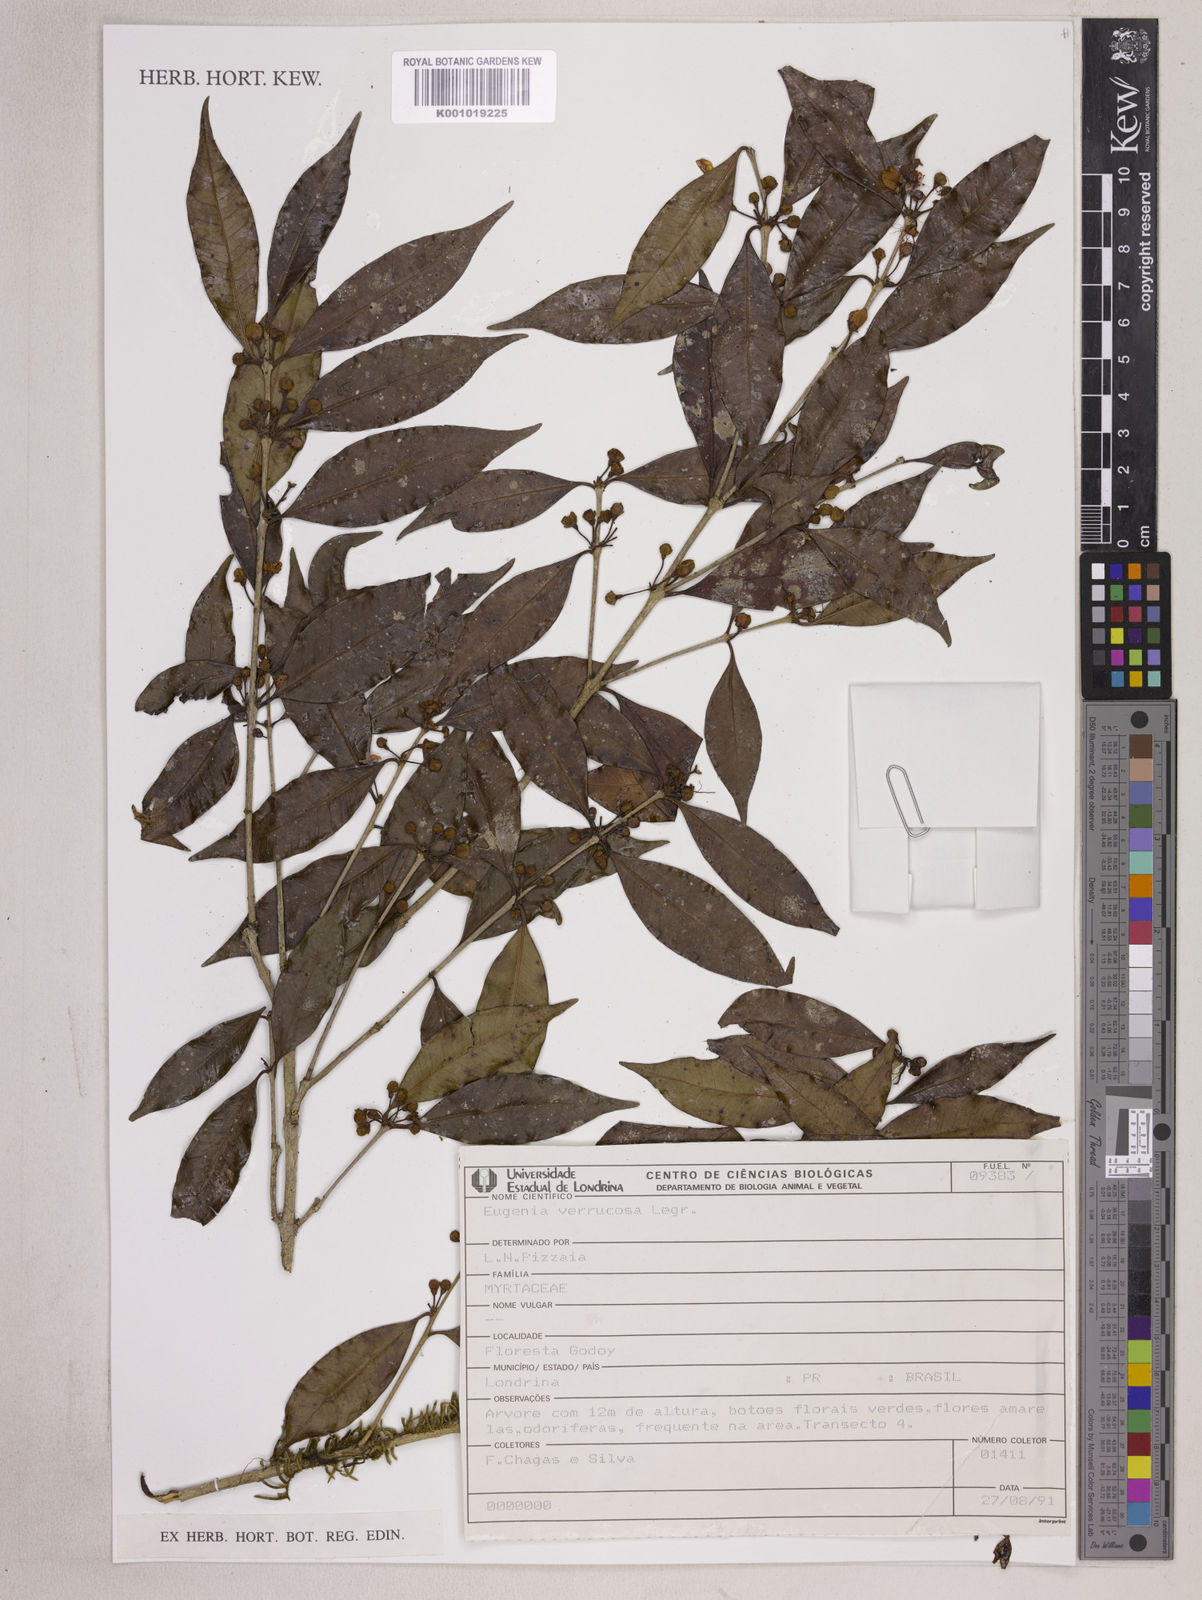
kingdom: Plantae
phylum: Tracheophyta
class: Magnoliopsida
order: Myrtales
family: Myrtaceae
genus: Eugenia
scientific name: Eugenia neoverrucosa
